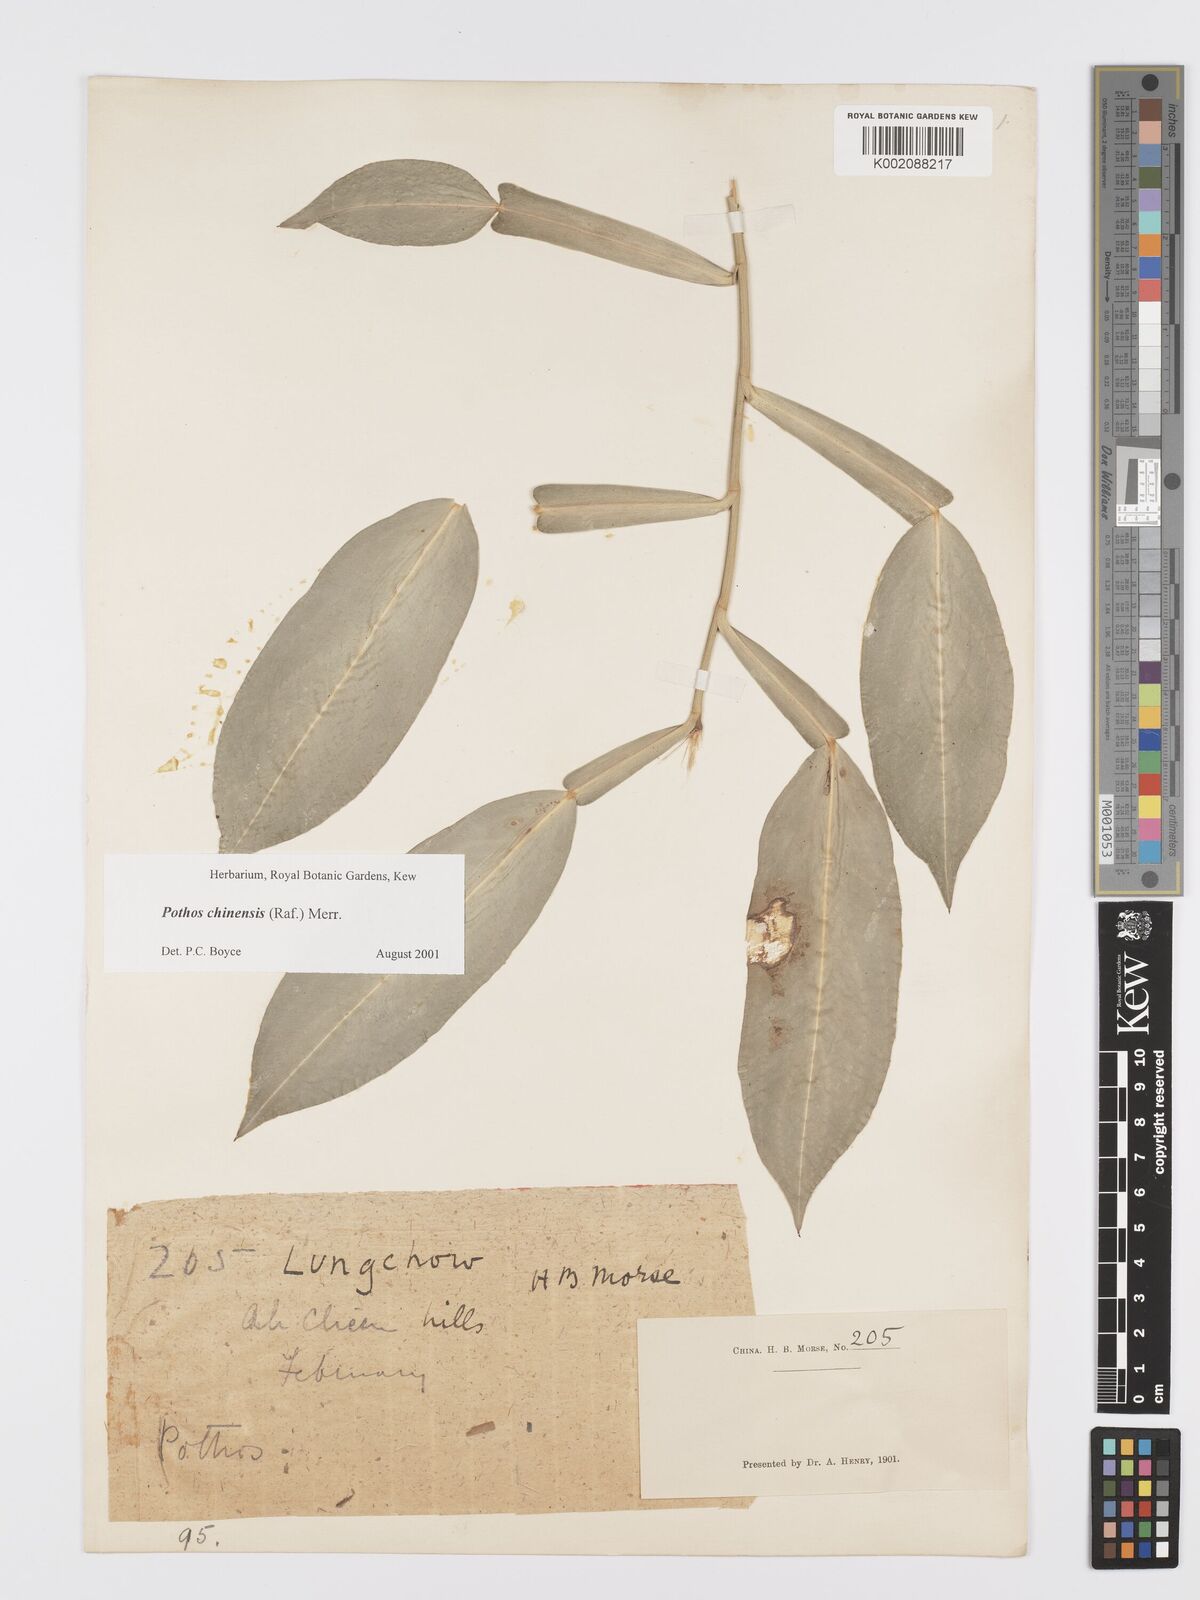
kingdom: Plantae
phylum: Tracheophyta
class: Liliopsida
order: Alismatales
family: Araceae
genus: Pothos
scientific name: Pothos chinensis
